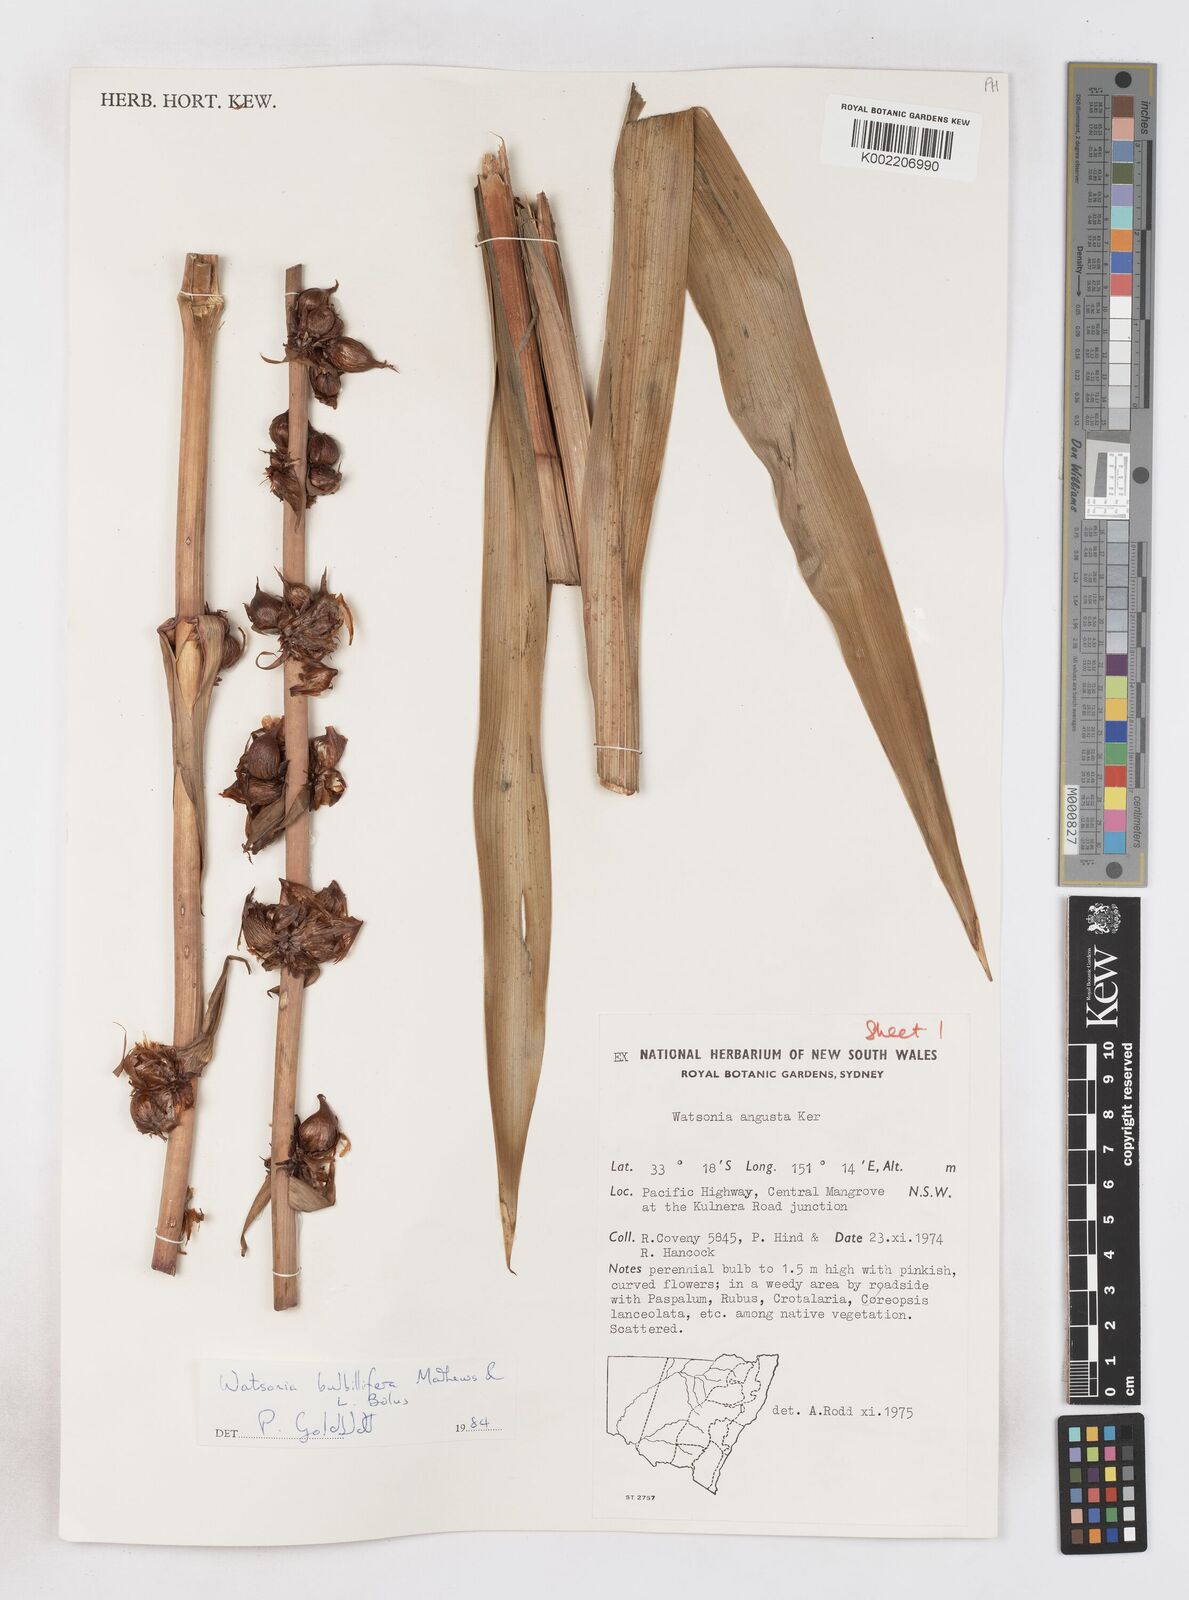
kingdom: Plantae
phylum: Tracheophyta
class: Liliopsida
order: Asparagales
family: Iridaceae
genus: Watsonia
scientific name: Watsonia meriana
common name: Bulbil bugle-lily
